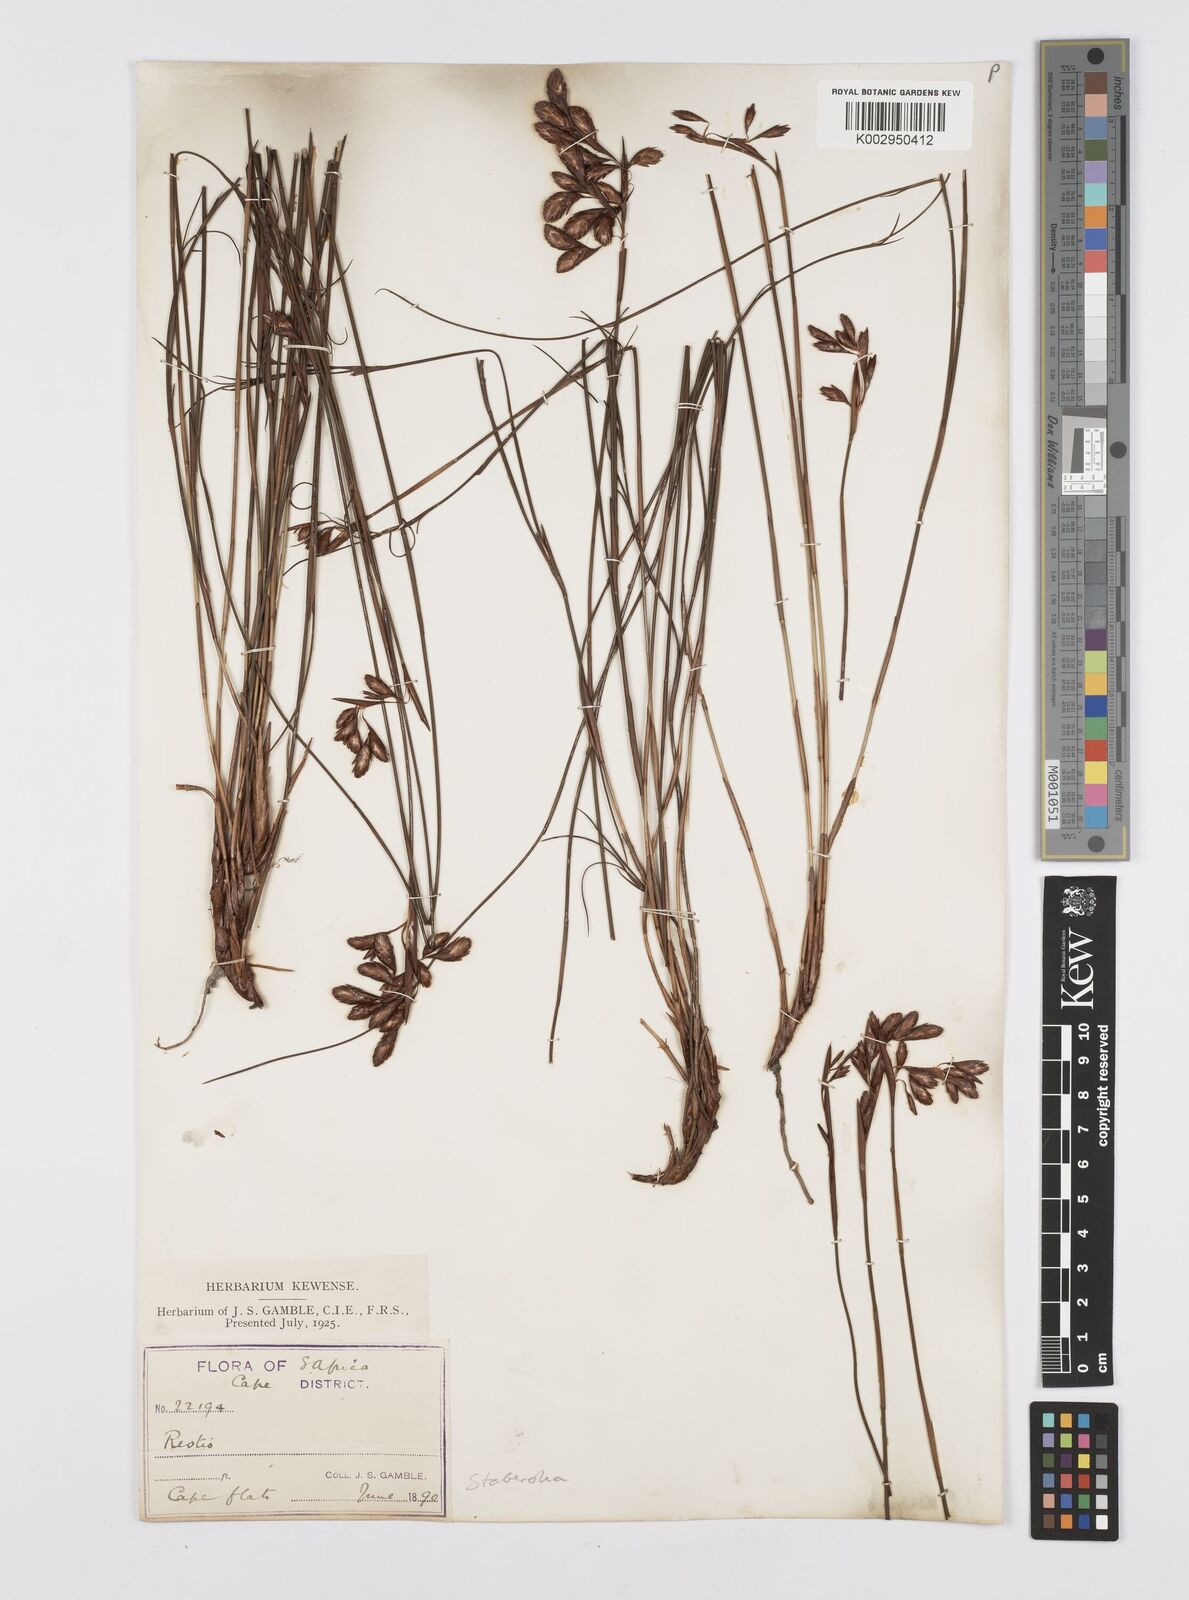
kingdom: Plantae
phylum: Tracheophyta
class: Liliopsida
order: Poales
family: Restionaceae
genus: Staberoha
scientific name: Staberoha
